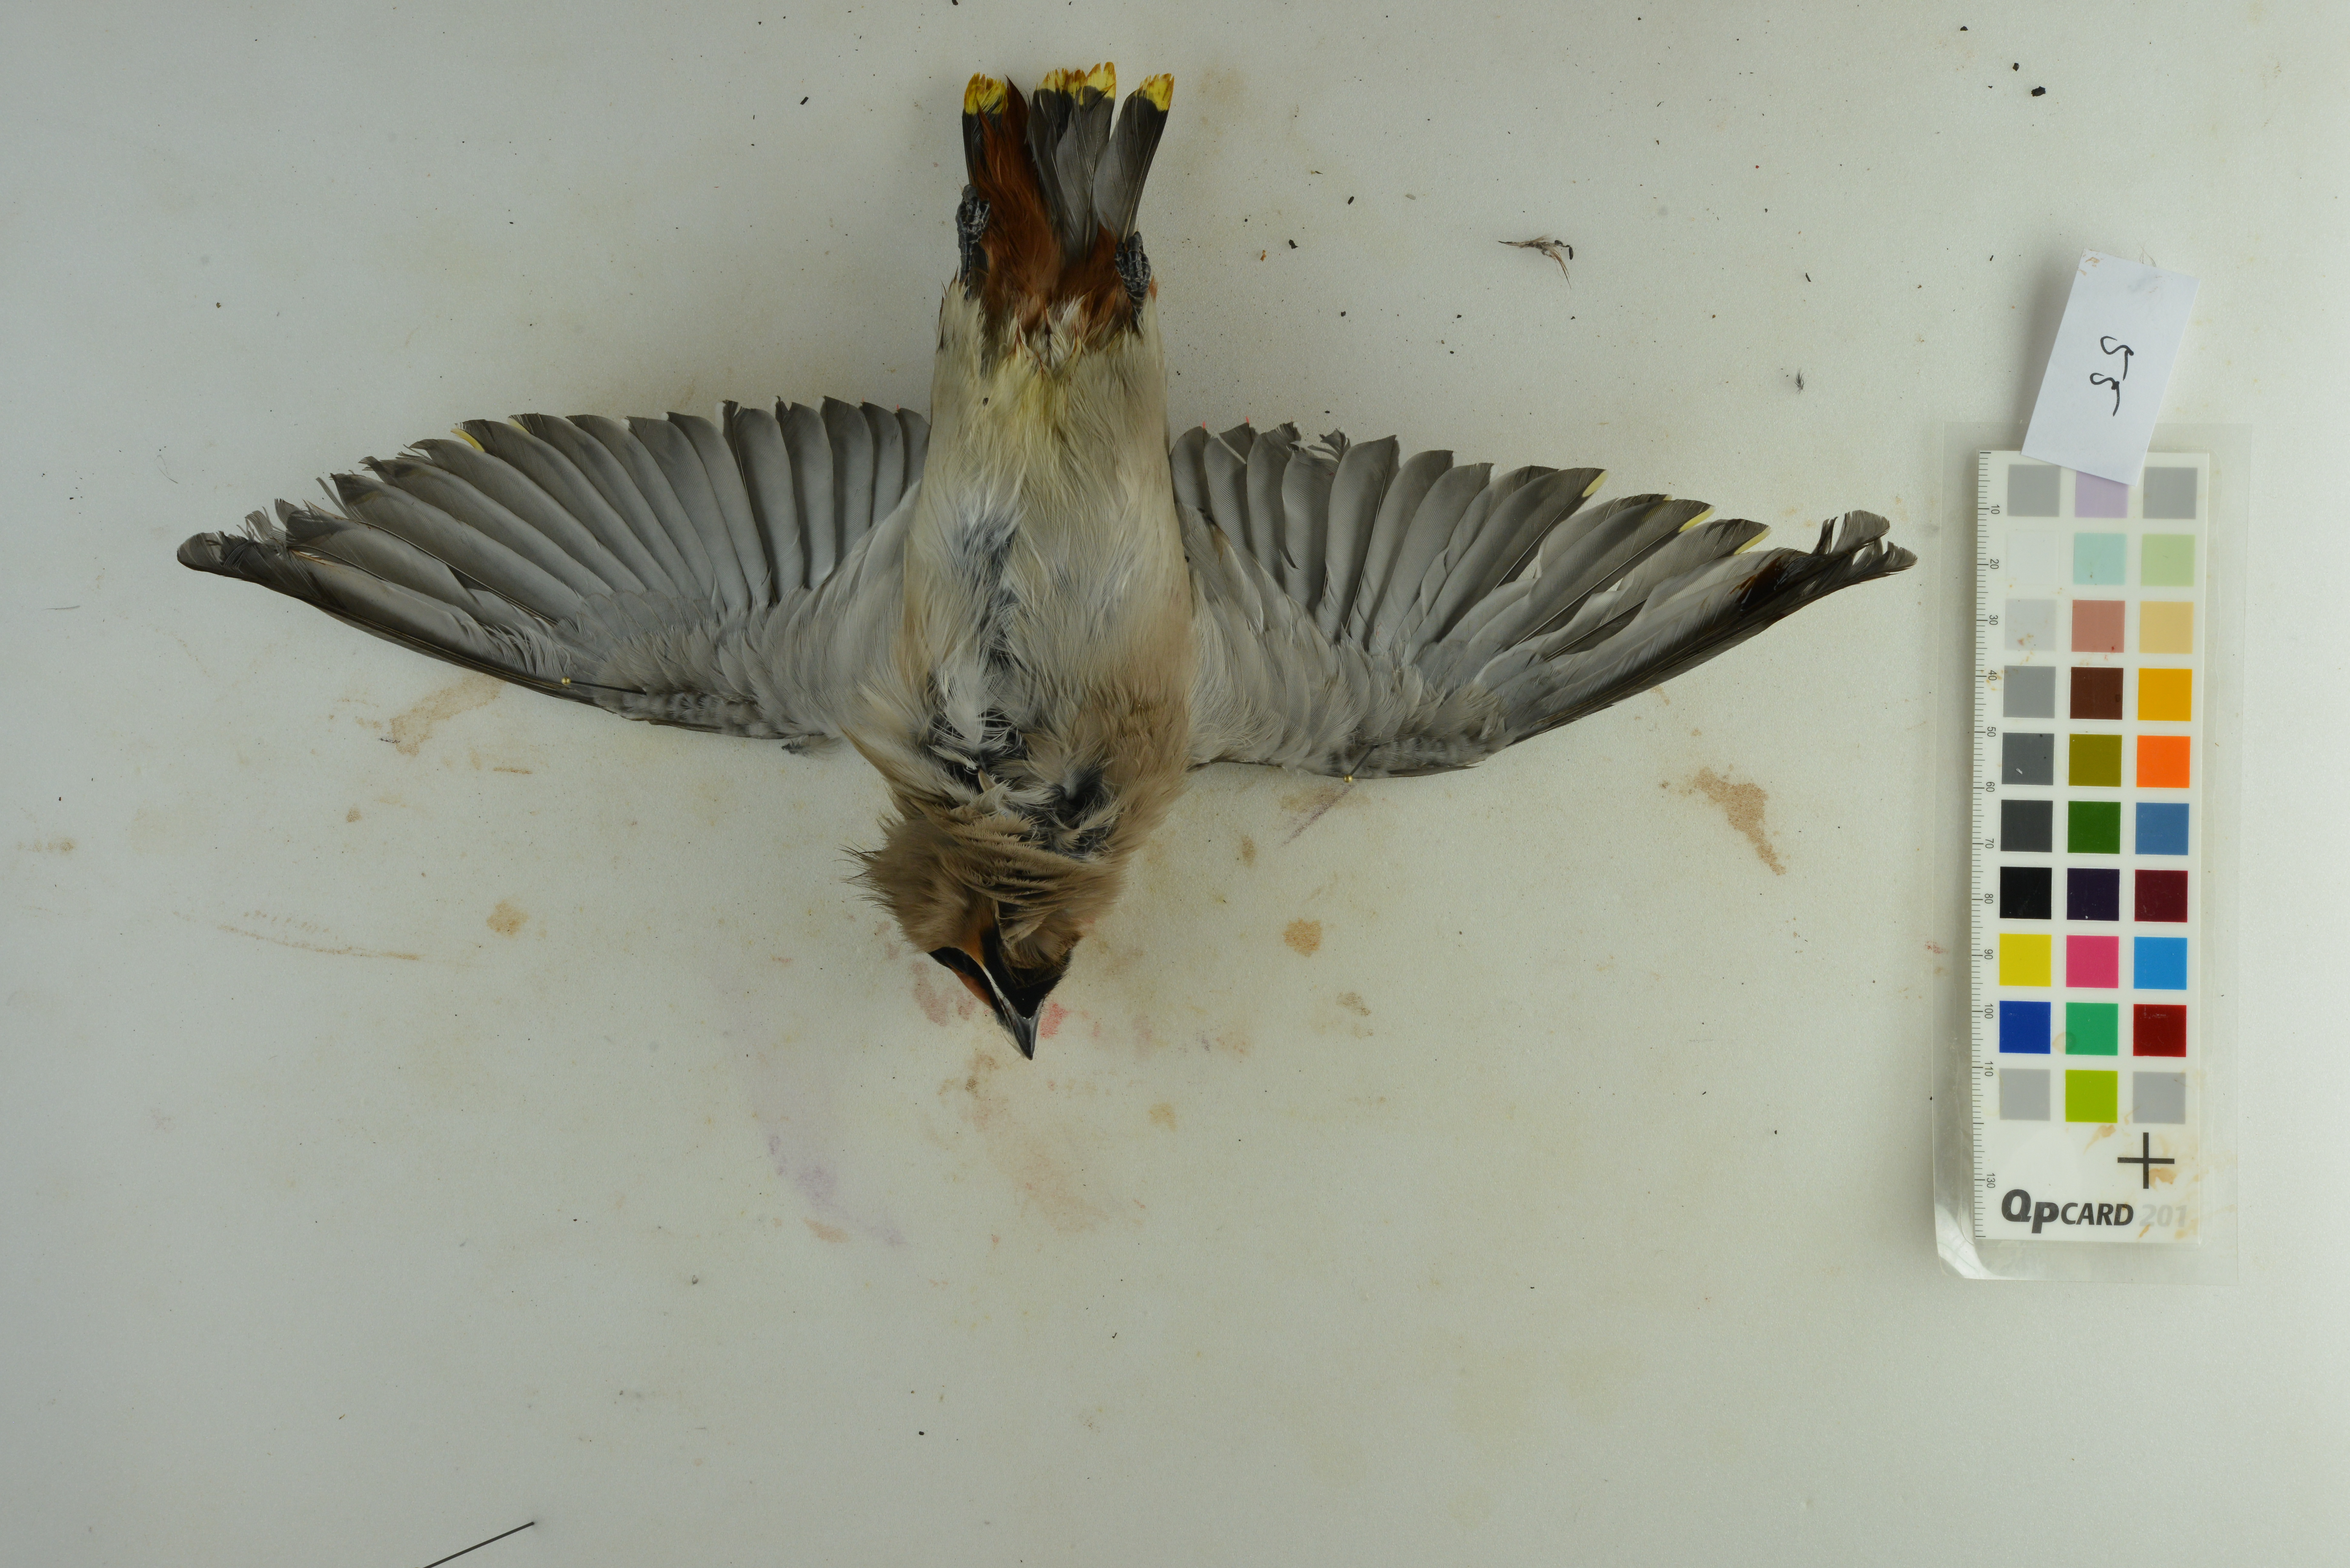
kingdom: Animalia
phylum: Chordata
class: Aves
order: Passeriformes
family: Bombycillidae
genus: Bombycilla
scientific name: Bombycilla garrulus
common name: Bohemian waxwing
